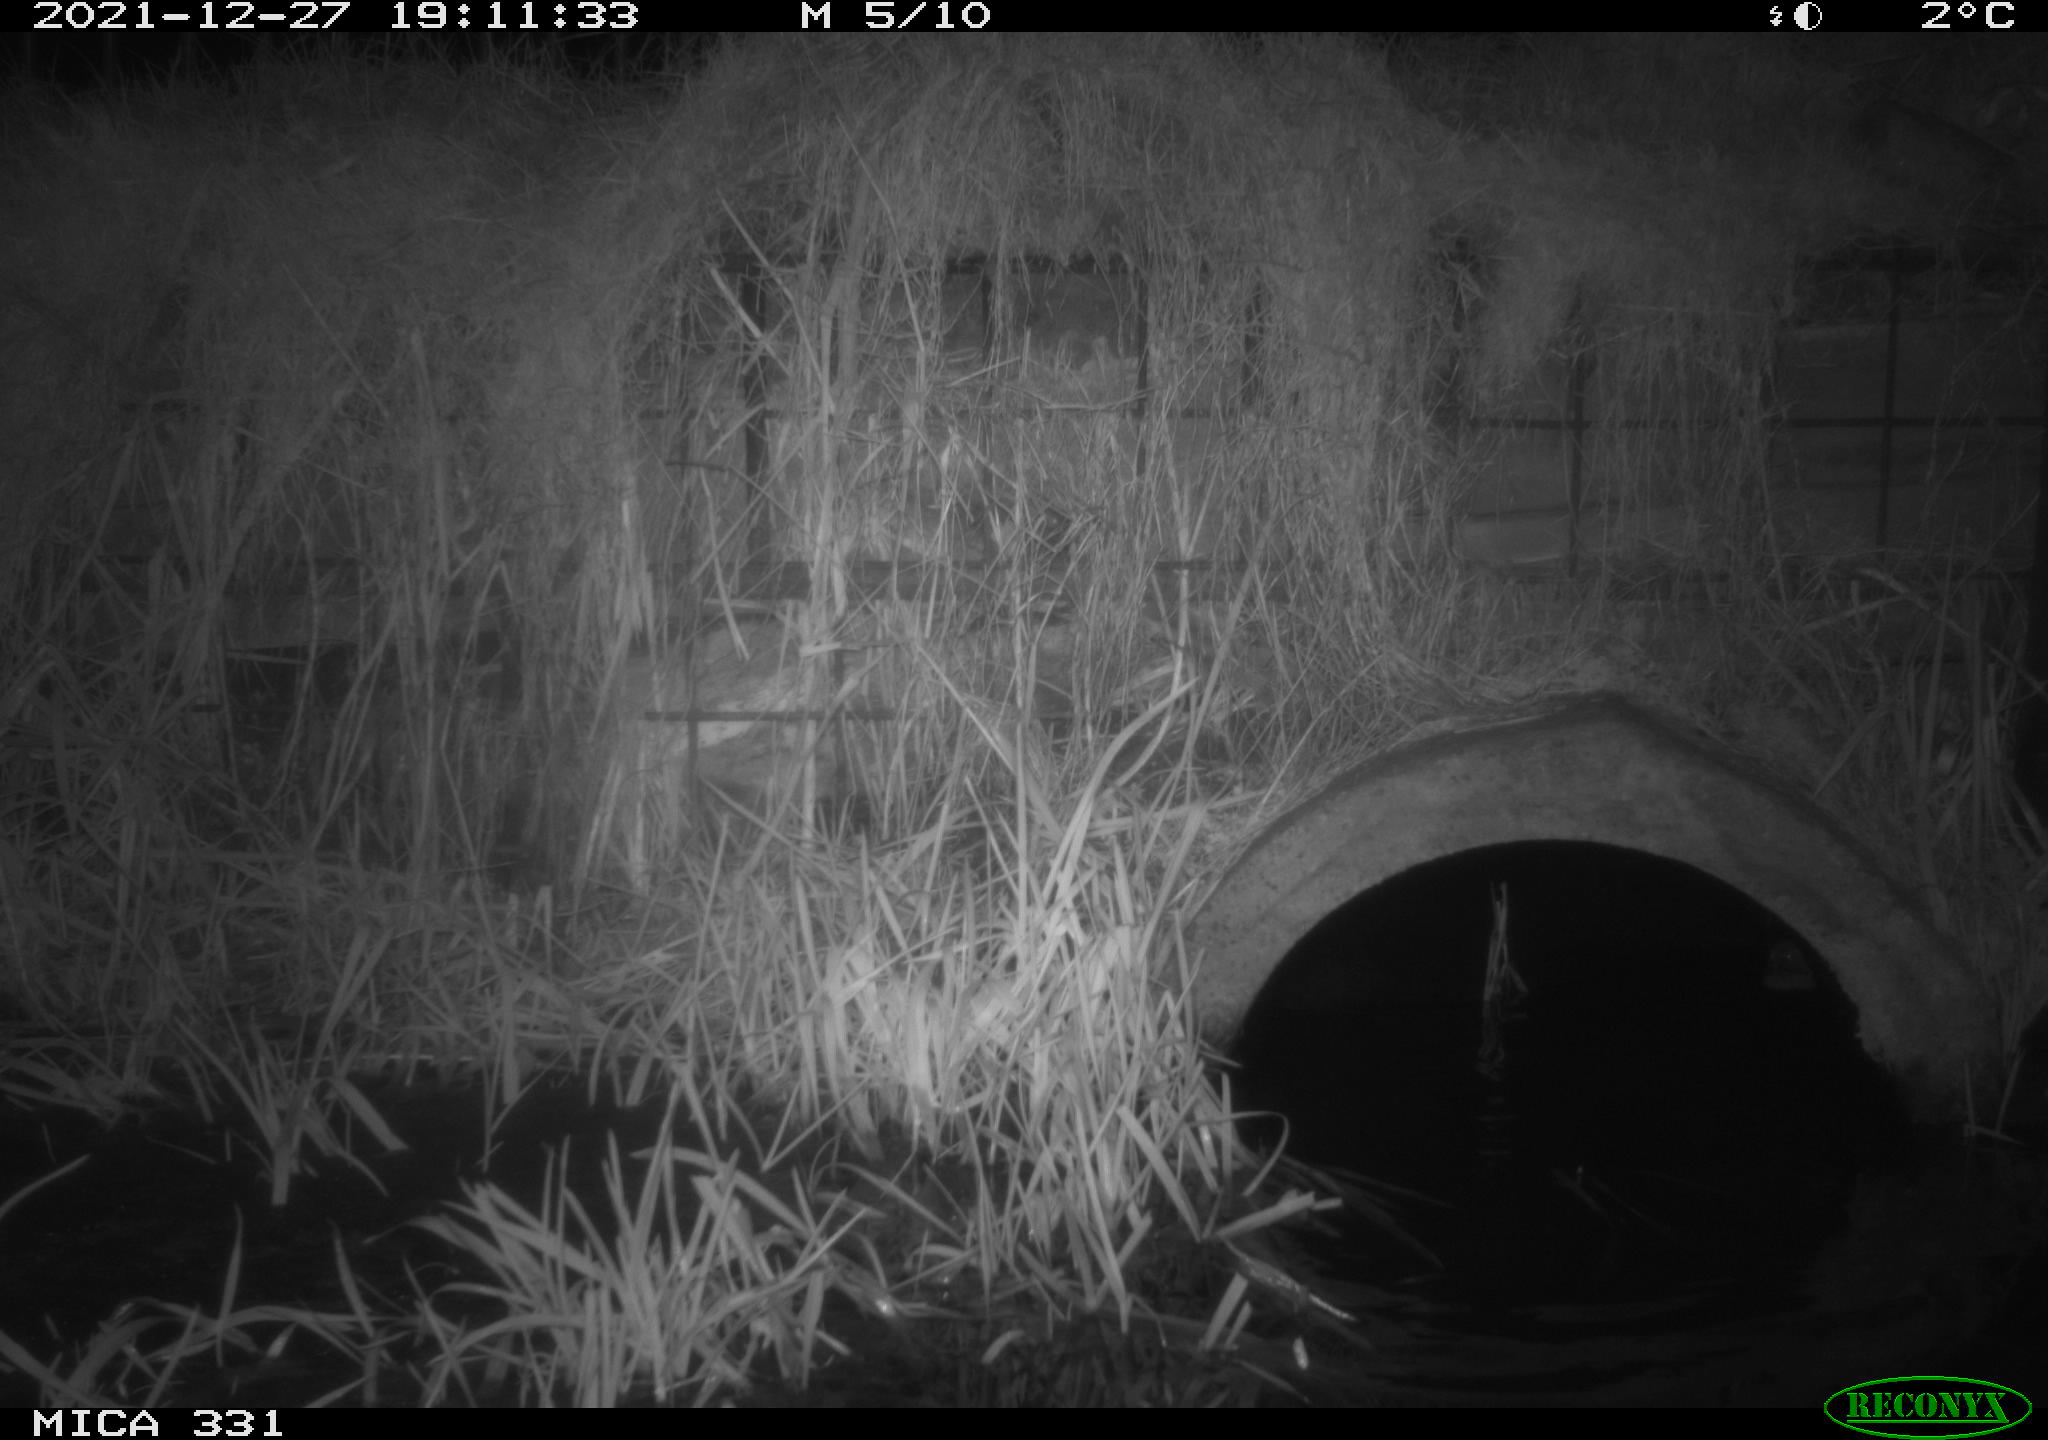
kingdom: Animalia
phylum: Chordata
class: Mammalia
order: Rodentia
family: Muridae
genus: Rattus
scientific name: Rattus norvegicus
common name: Brown rat
